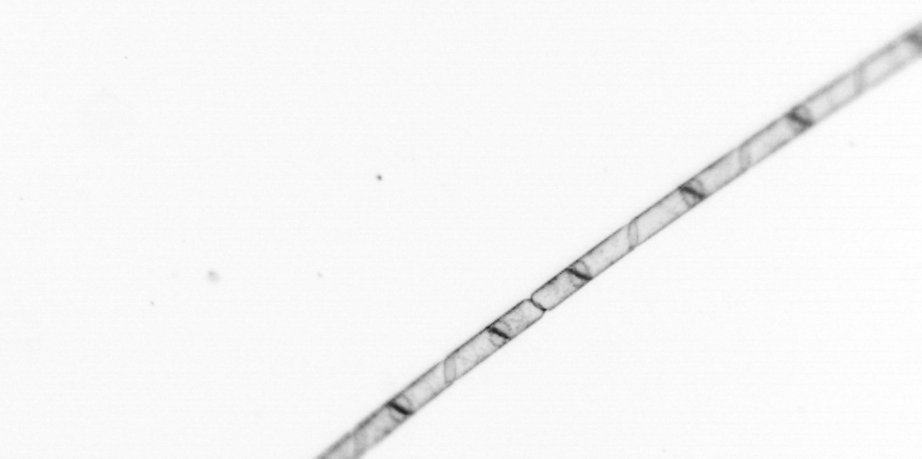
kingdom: Chromista
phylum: Ochrophyta
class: Bacillariophyceae
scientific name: Bacillariophyceae
